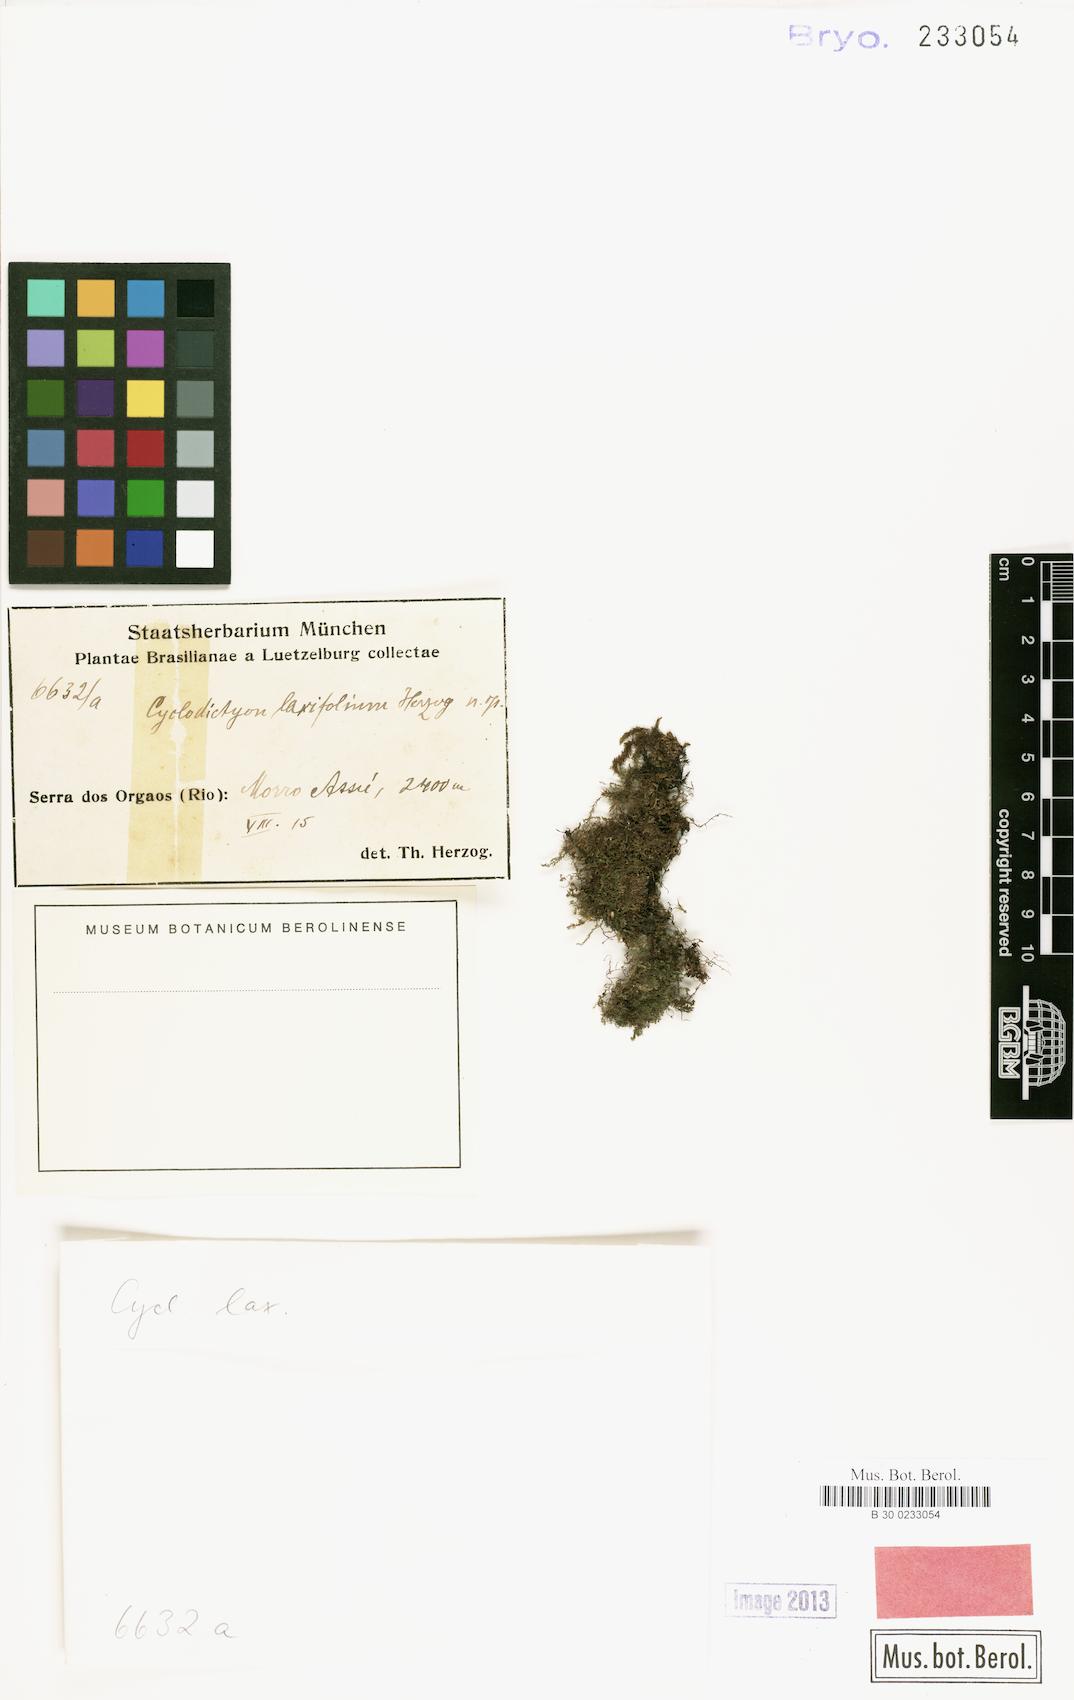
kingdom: Plantae
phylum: Bryophyta
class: Bryopsida
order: Hookeriales
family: Pilotrichaceae
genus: Cyclodictyon
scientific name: Cyclodictyon laxifolium
